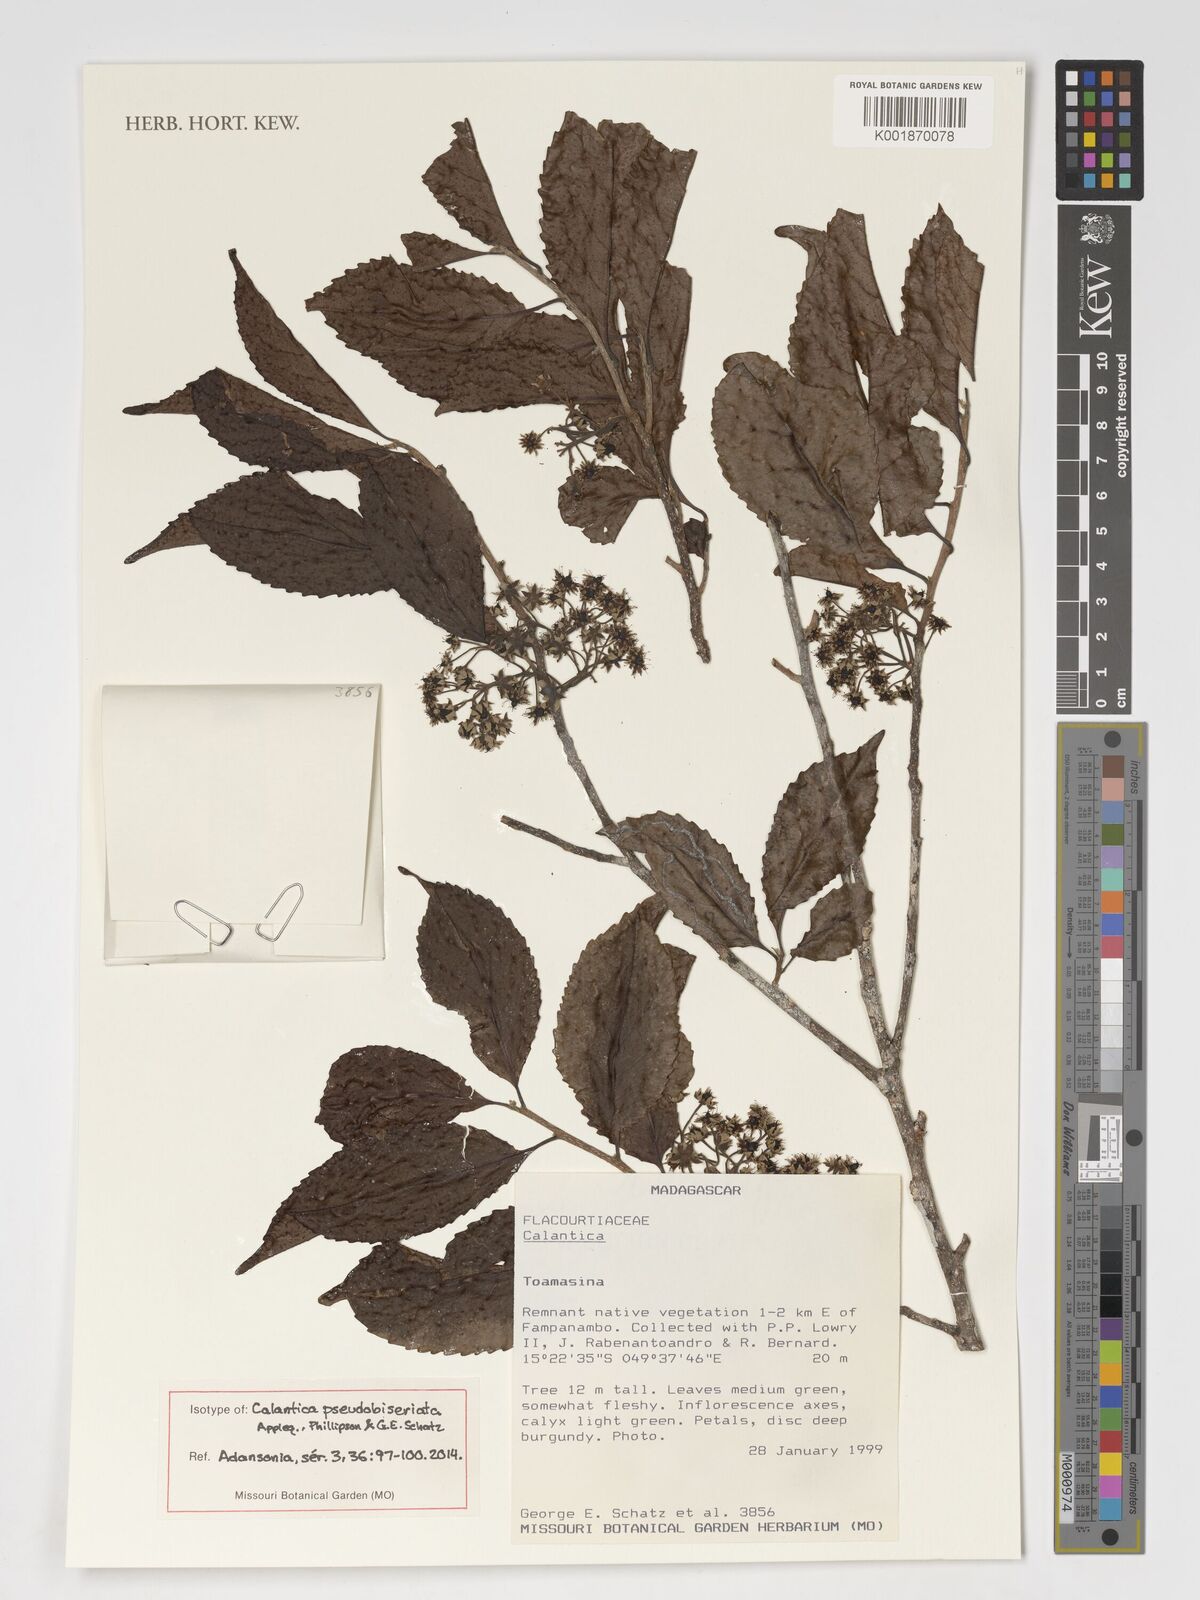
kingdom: Plantae
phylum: Tracheophyta
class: Magnoliopsida
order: Malpighiales
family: Salicaceae
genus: Calantica
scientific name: Calantica pseudobiseriata
